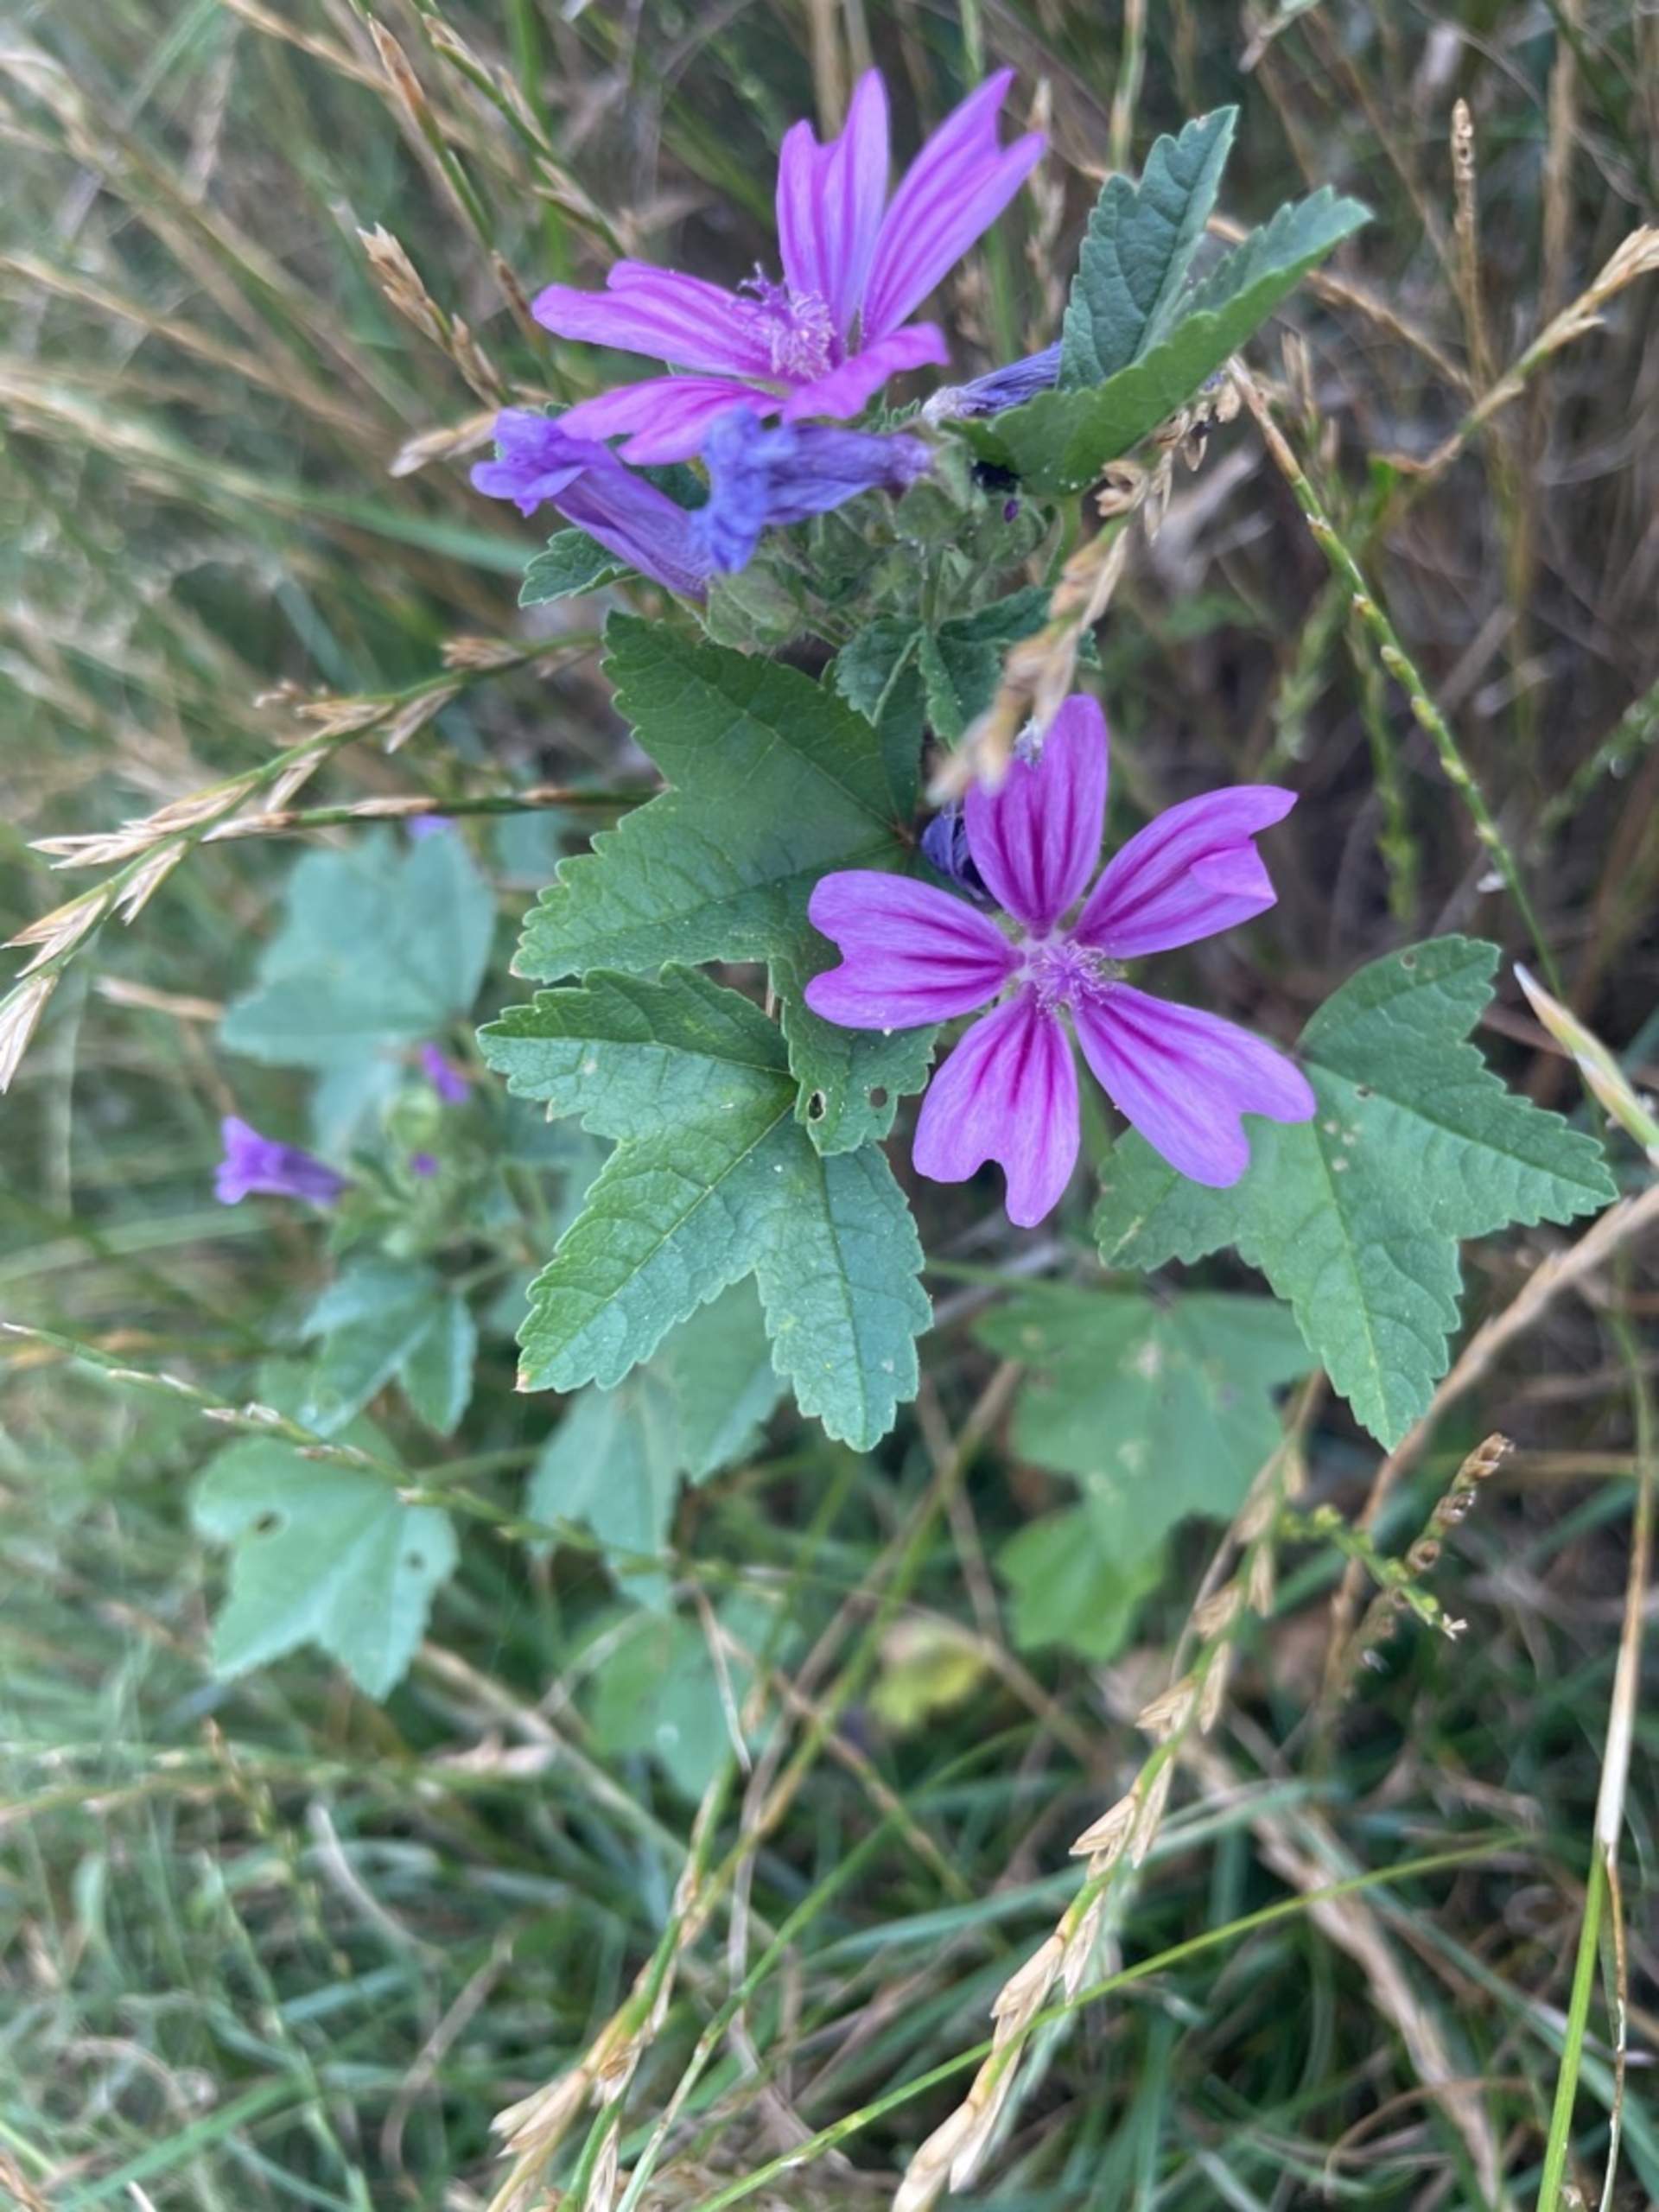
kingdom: Plantae
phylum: Tracheophyta
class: Magnoliopsida
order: Malvales
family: Malvaceae
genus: Malva
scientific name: Malva sylvestris
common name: Almindelig katost
